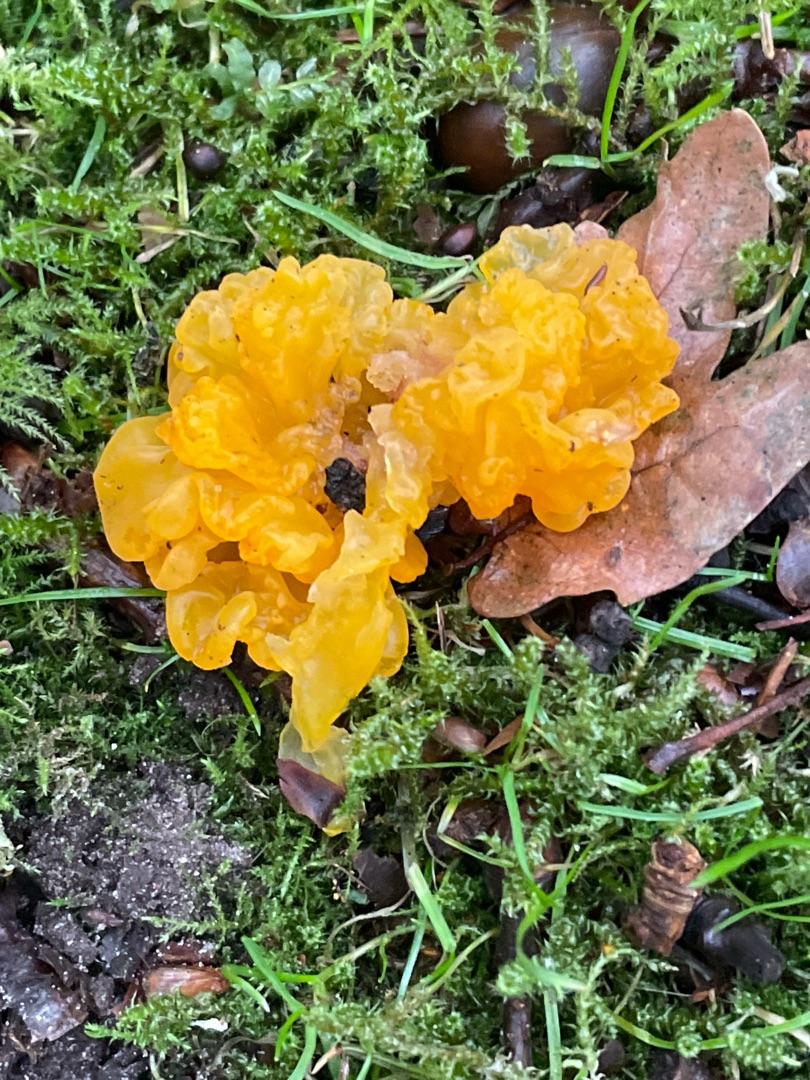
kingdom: Fungi
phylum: Basidiomycota
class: Tremellomycetes
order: Tremellales
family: Tremellaceae
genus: Tremella
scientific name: Tremella mesenterica
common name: Gul bævresvamp
